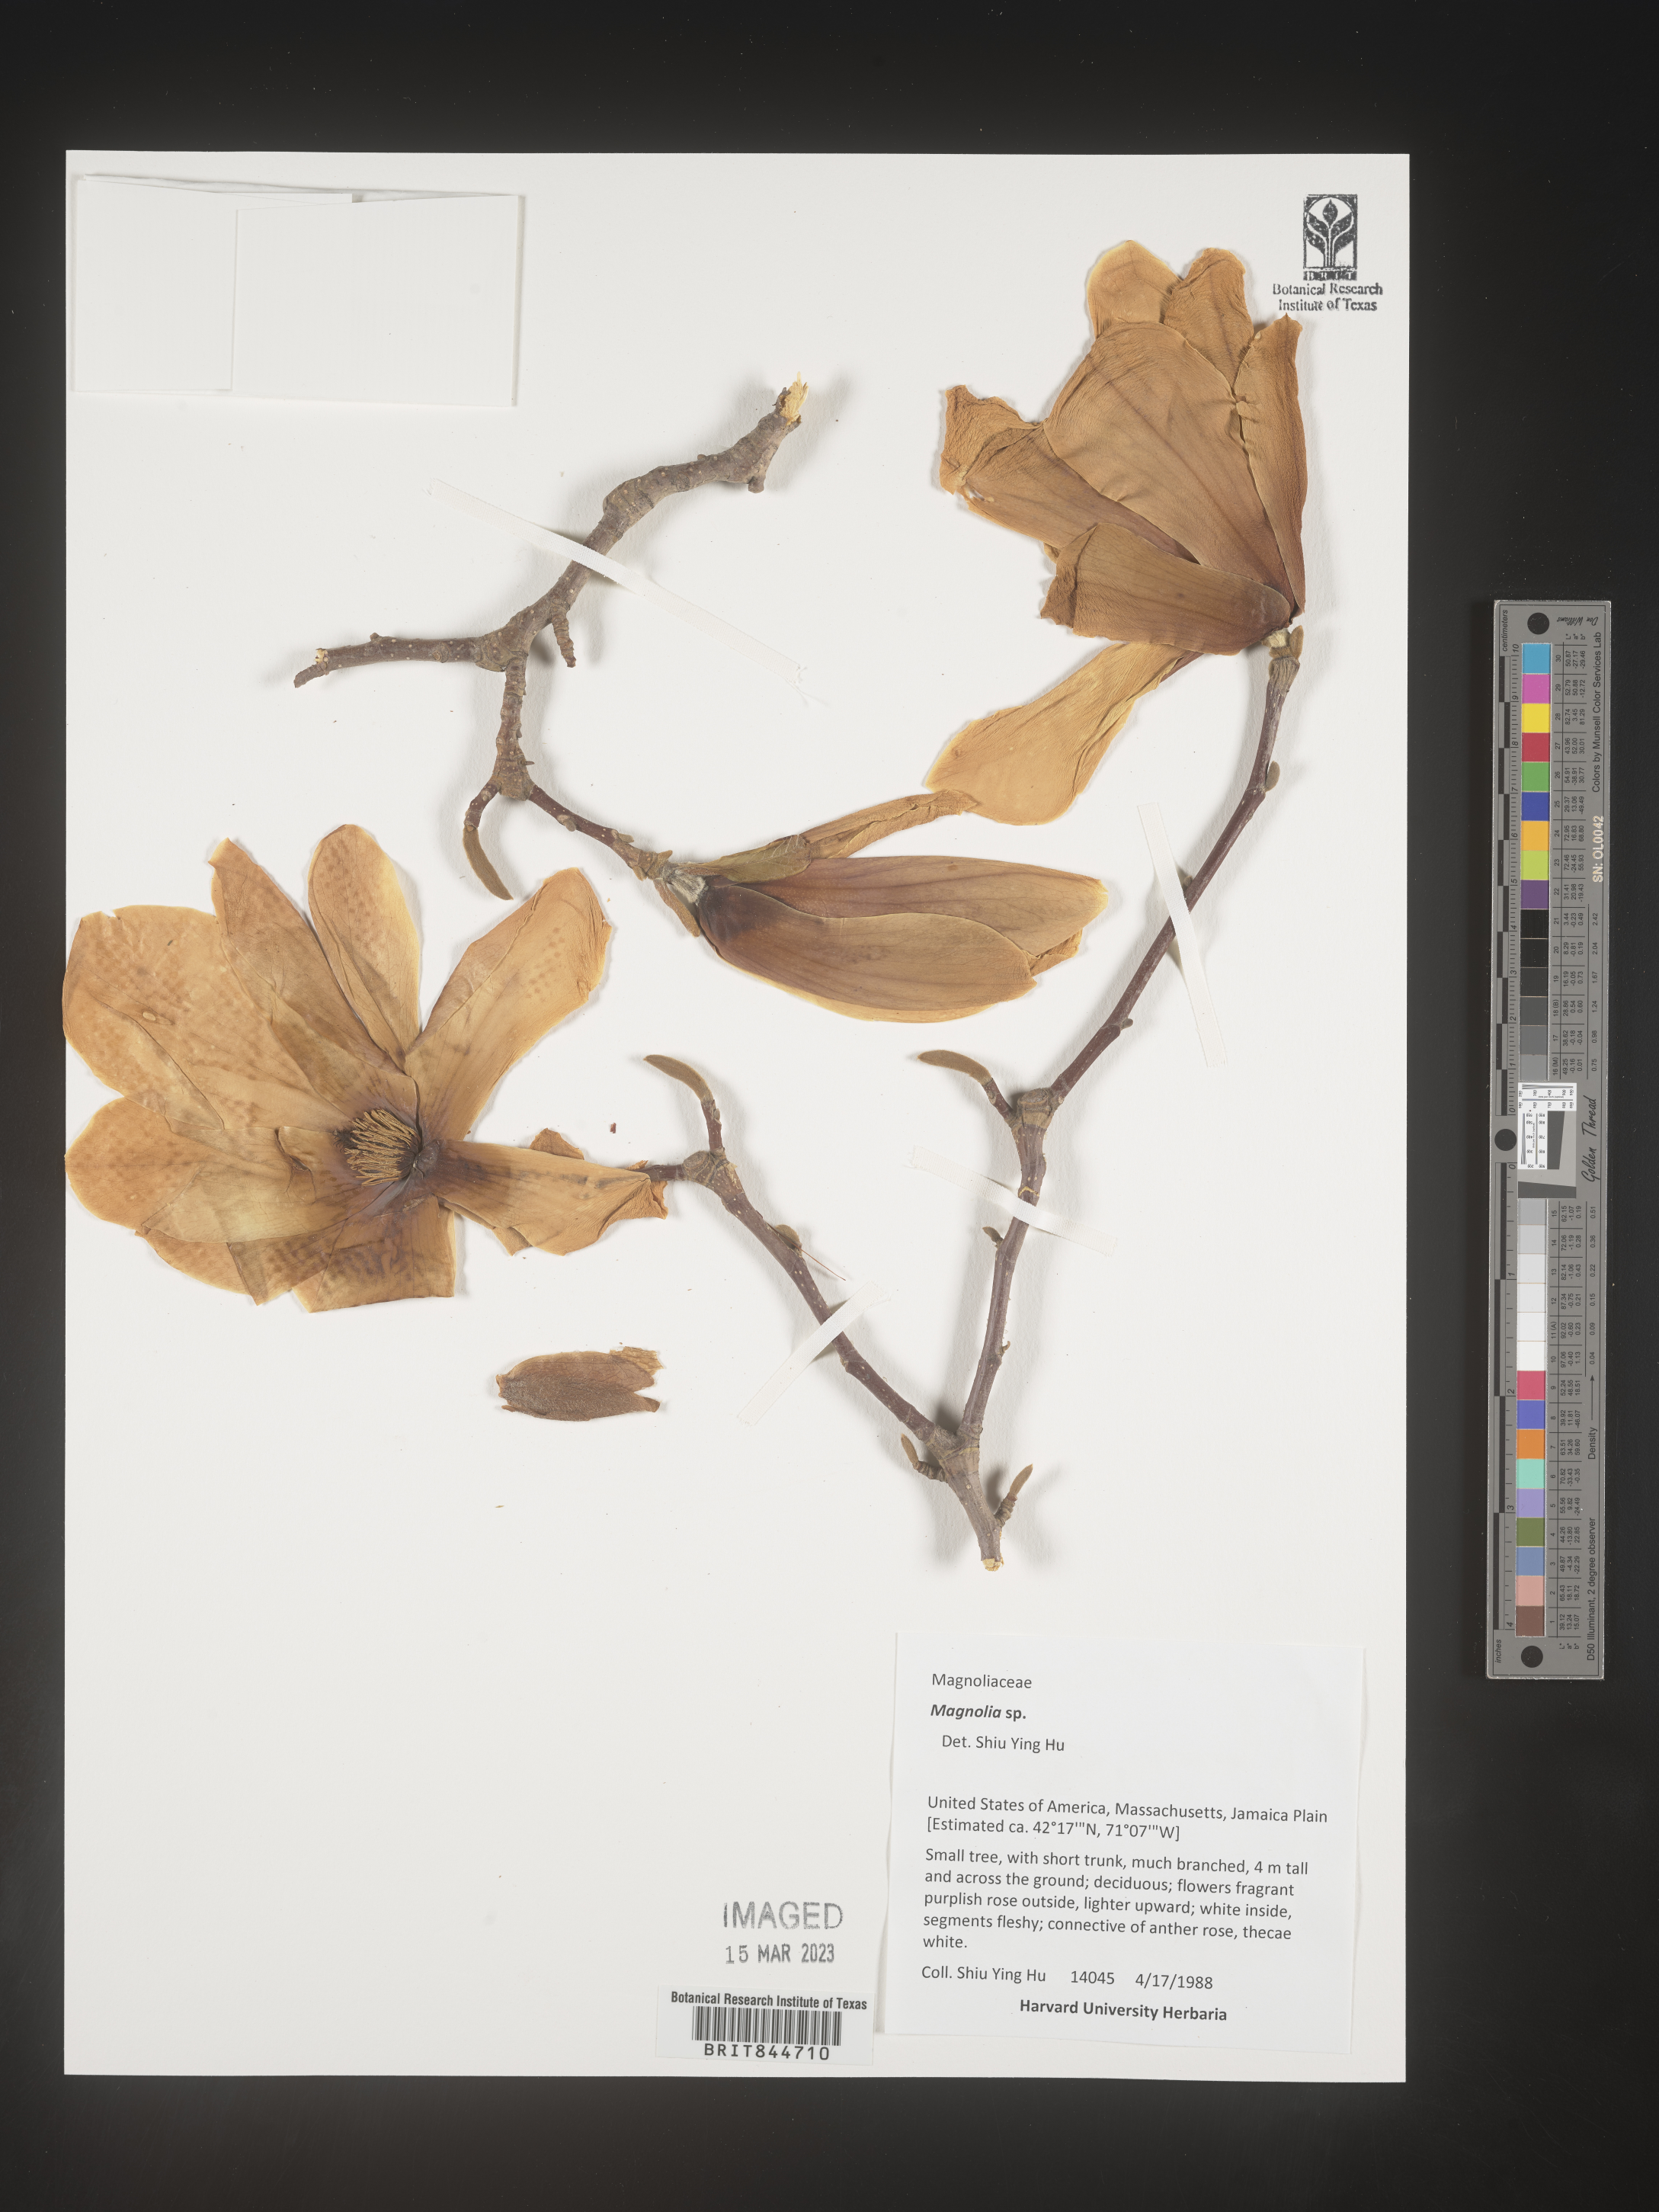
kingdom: Plantae
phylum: Tracheophyta
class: Magnoliopsida
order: Magnoliales
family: Magnoliaceae
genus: Magnolia
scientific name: Magnolia
